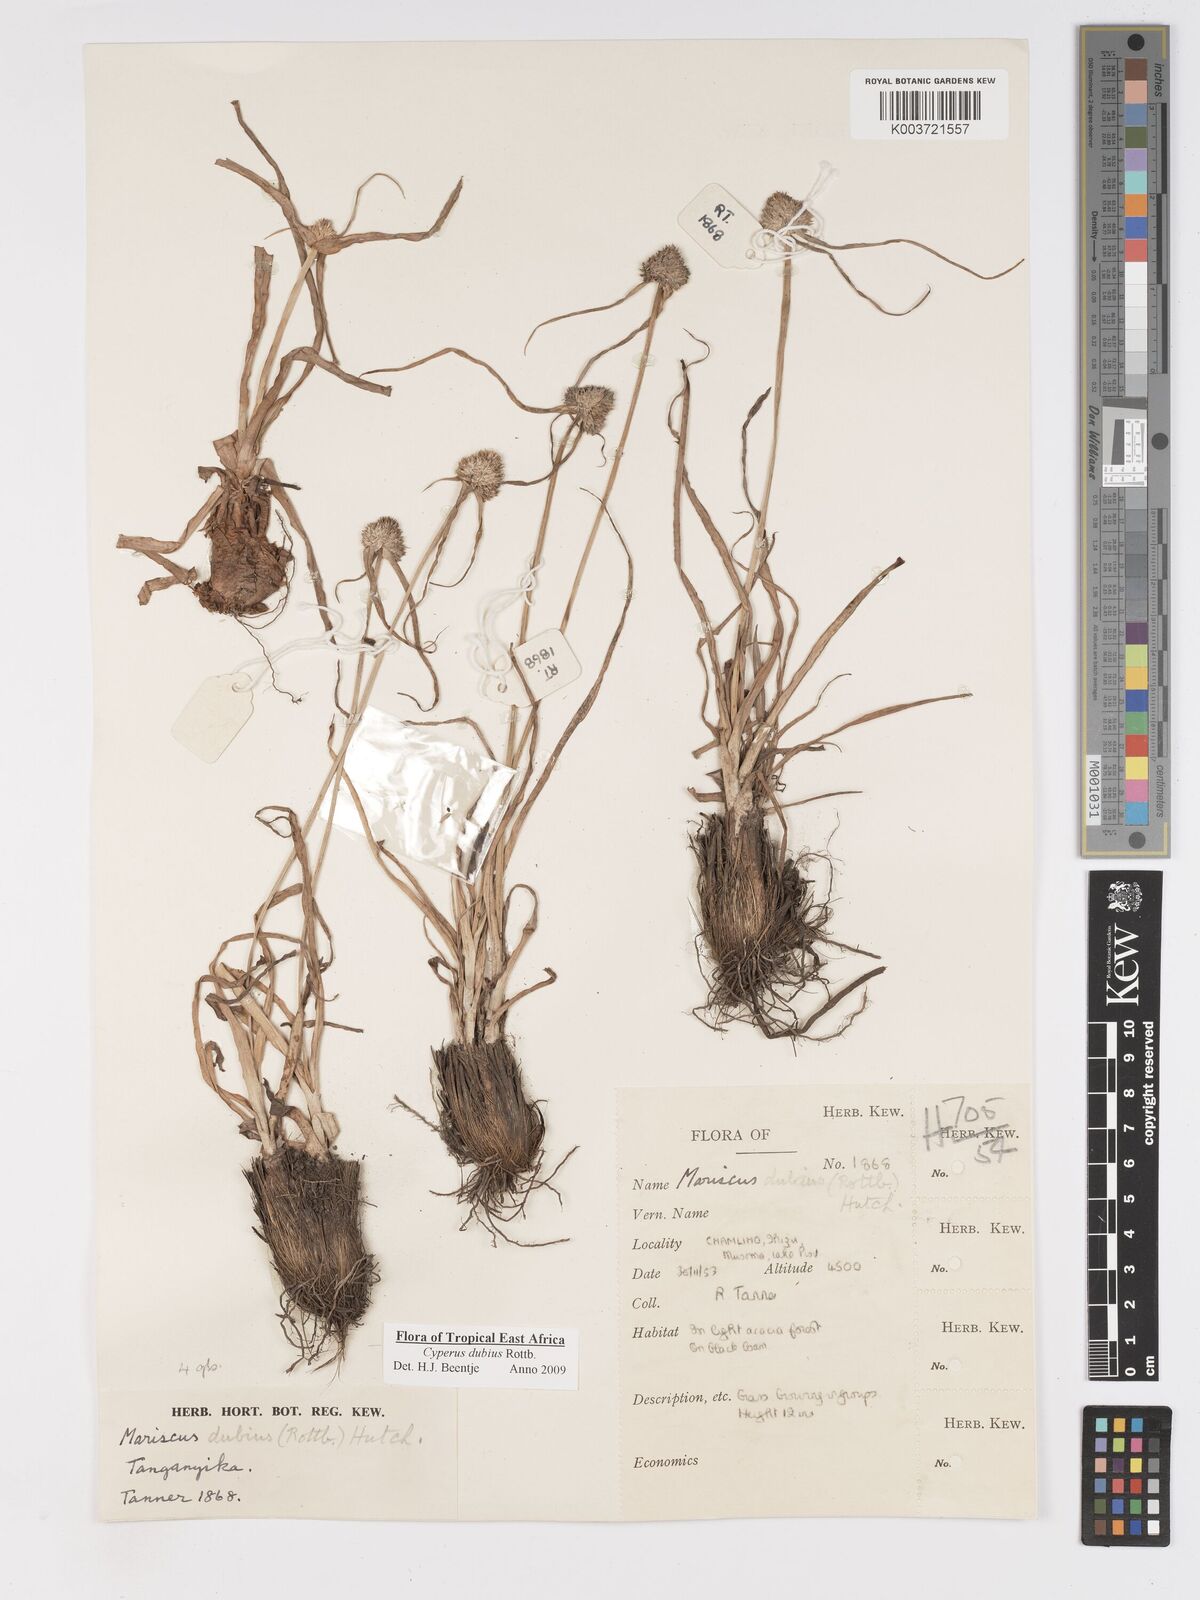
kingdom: Plantae
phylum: Tracheophyta
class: Liliopsida
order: Poales
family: Cyperaceae
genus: Cyperus
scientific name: Cyperus dubius
